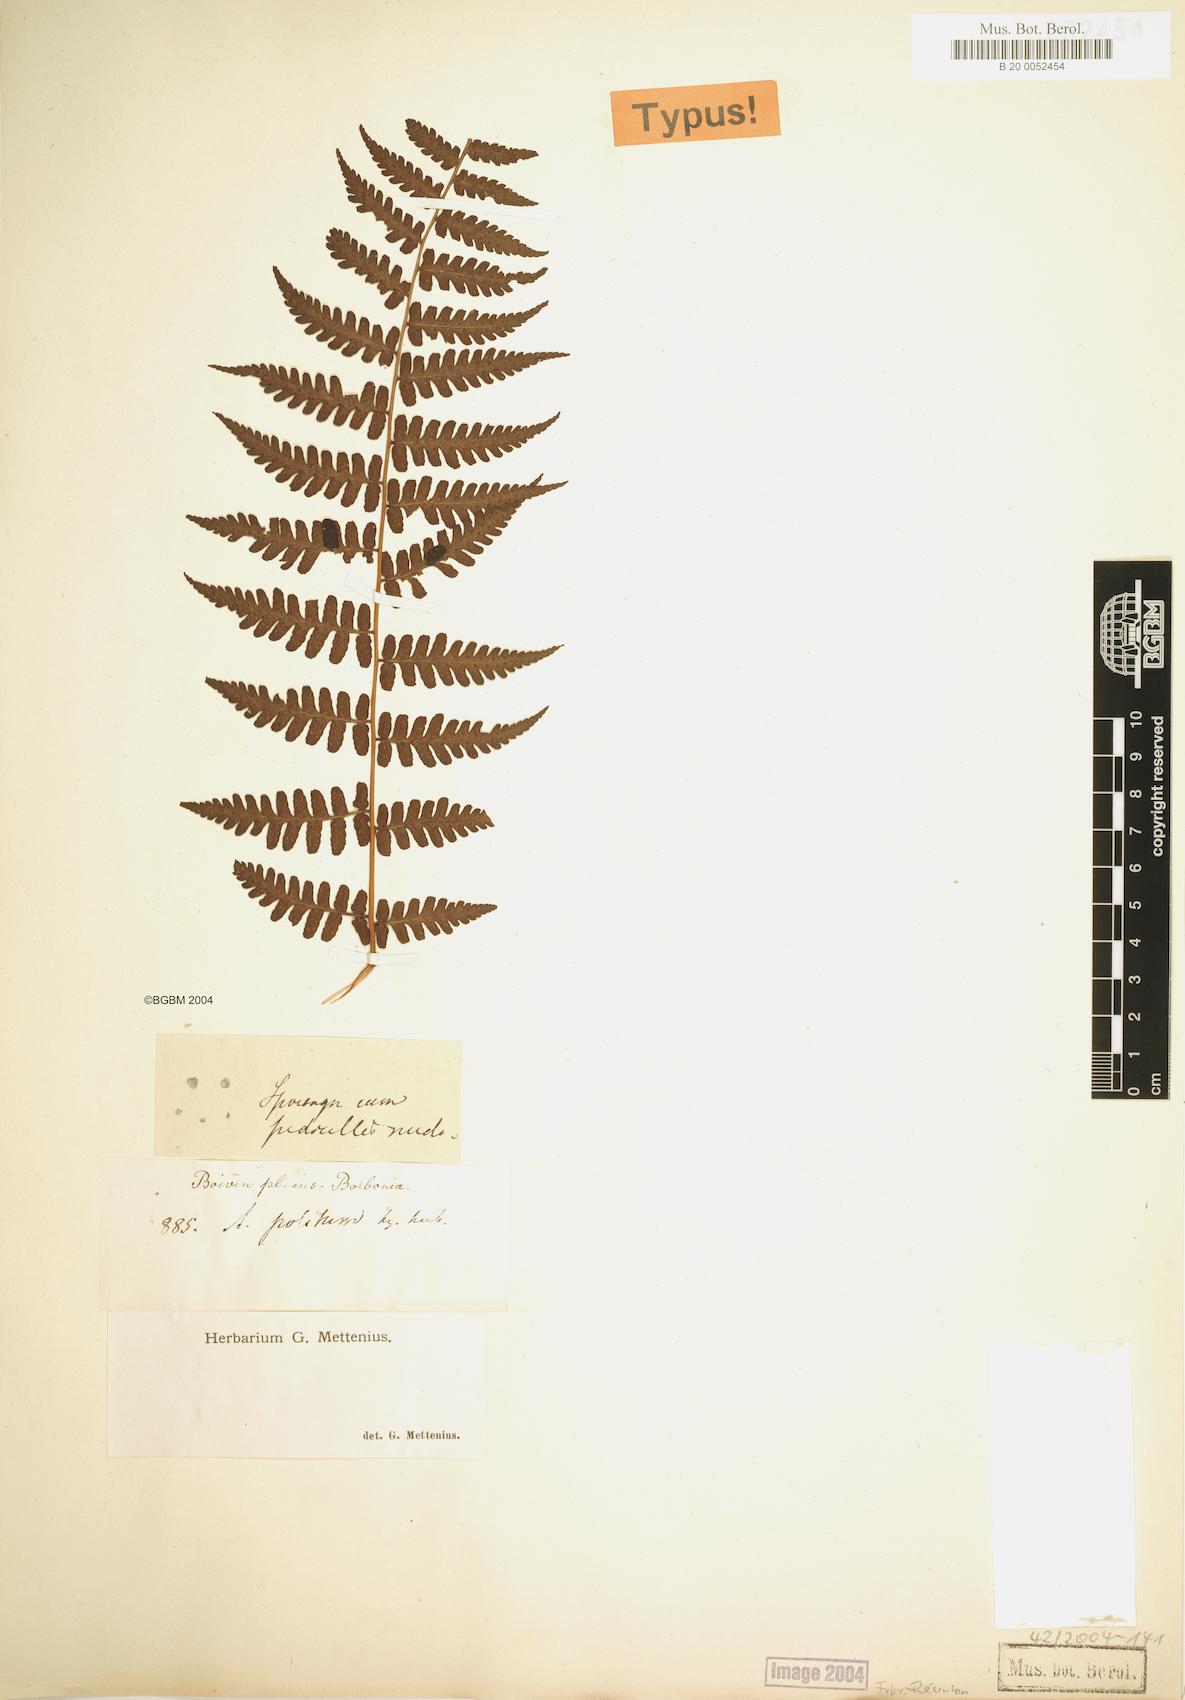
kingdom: Plantae
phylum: Tracheophyta
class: Polypodiopsida
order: Polypodiales
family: Dryopteridaceae
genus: Rumohra
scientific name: Rumohra adiantiformis
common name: Leather fern
